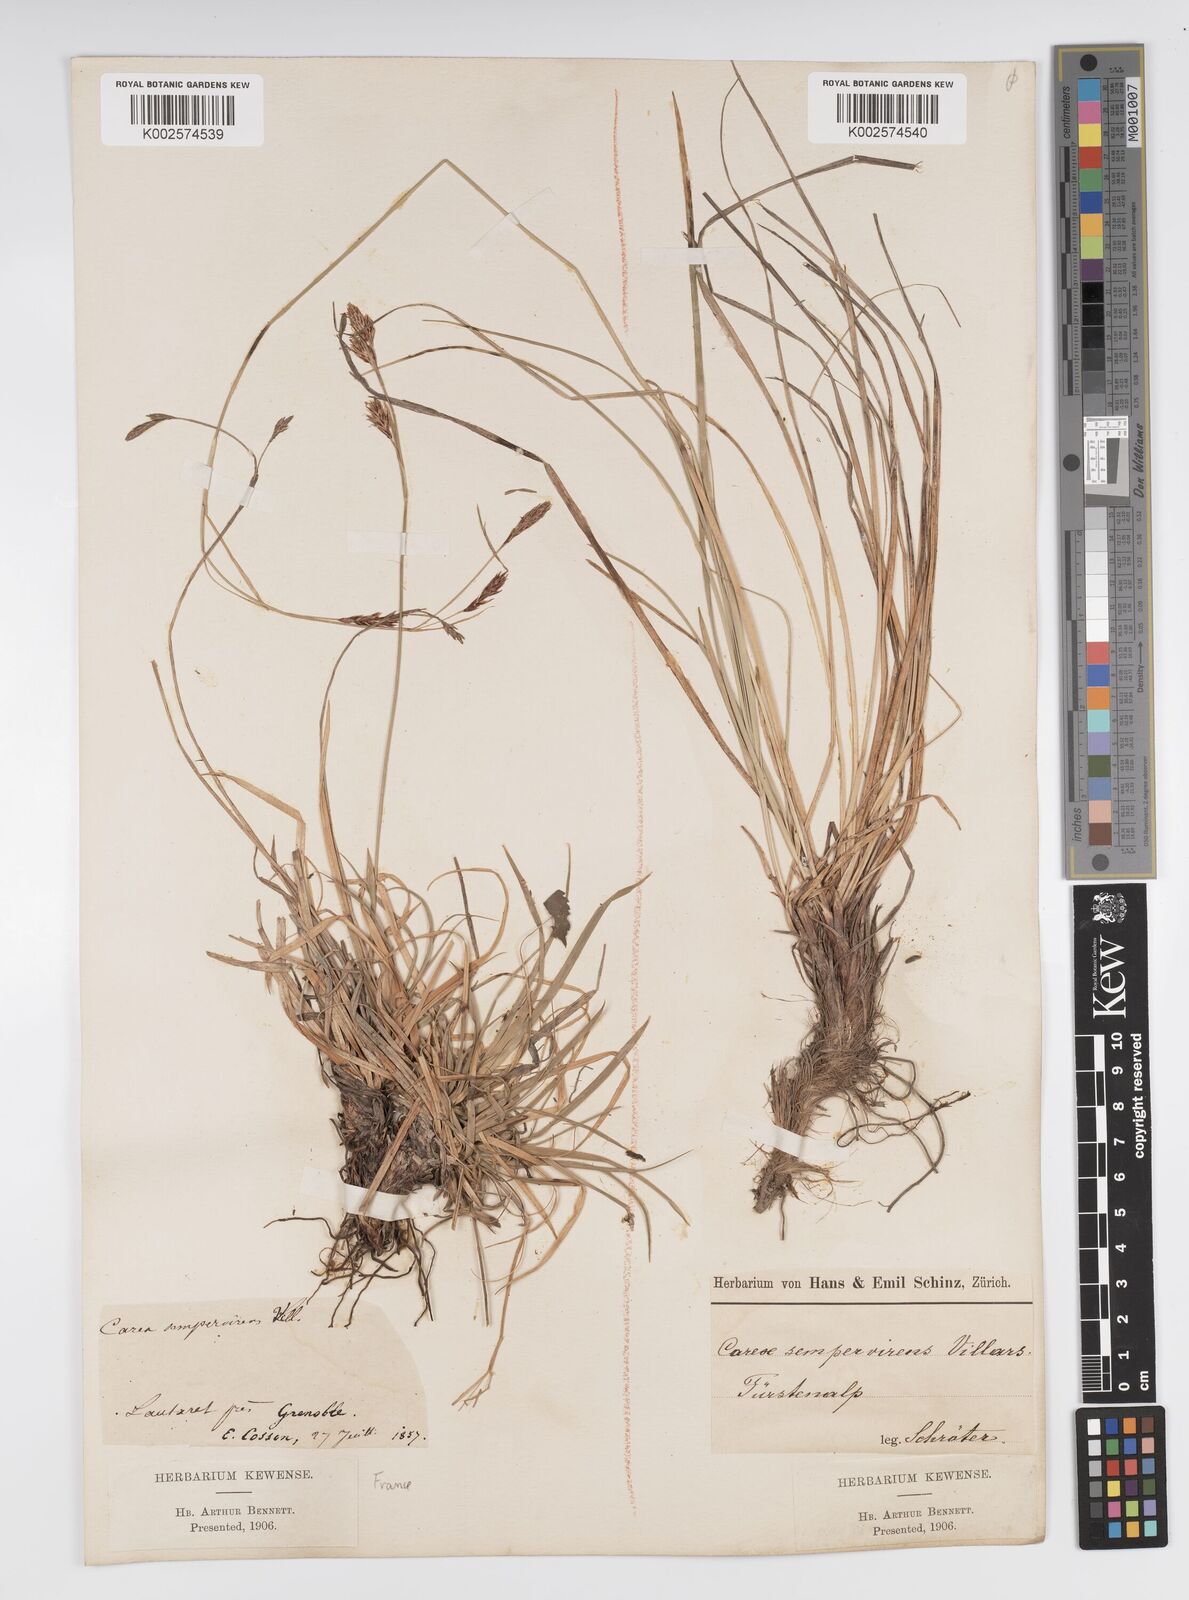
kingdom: Plantae
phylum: Tracheophyta
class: Liliopsida
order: Poales
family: Cyperaceae
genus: Carex
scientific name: Carex sempervirens
